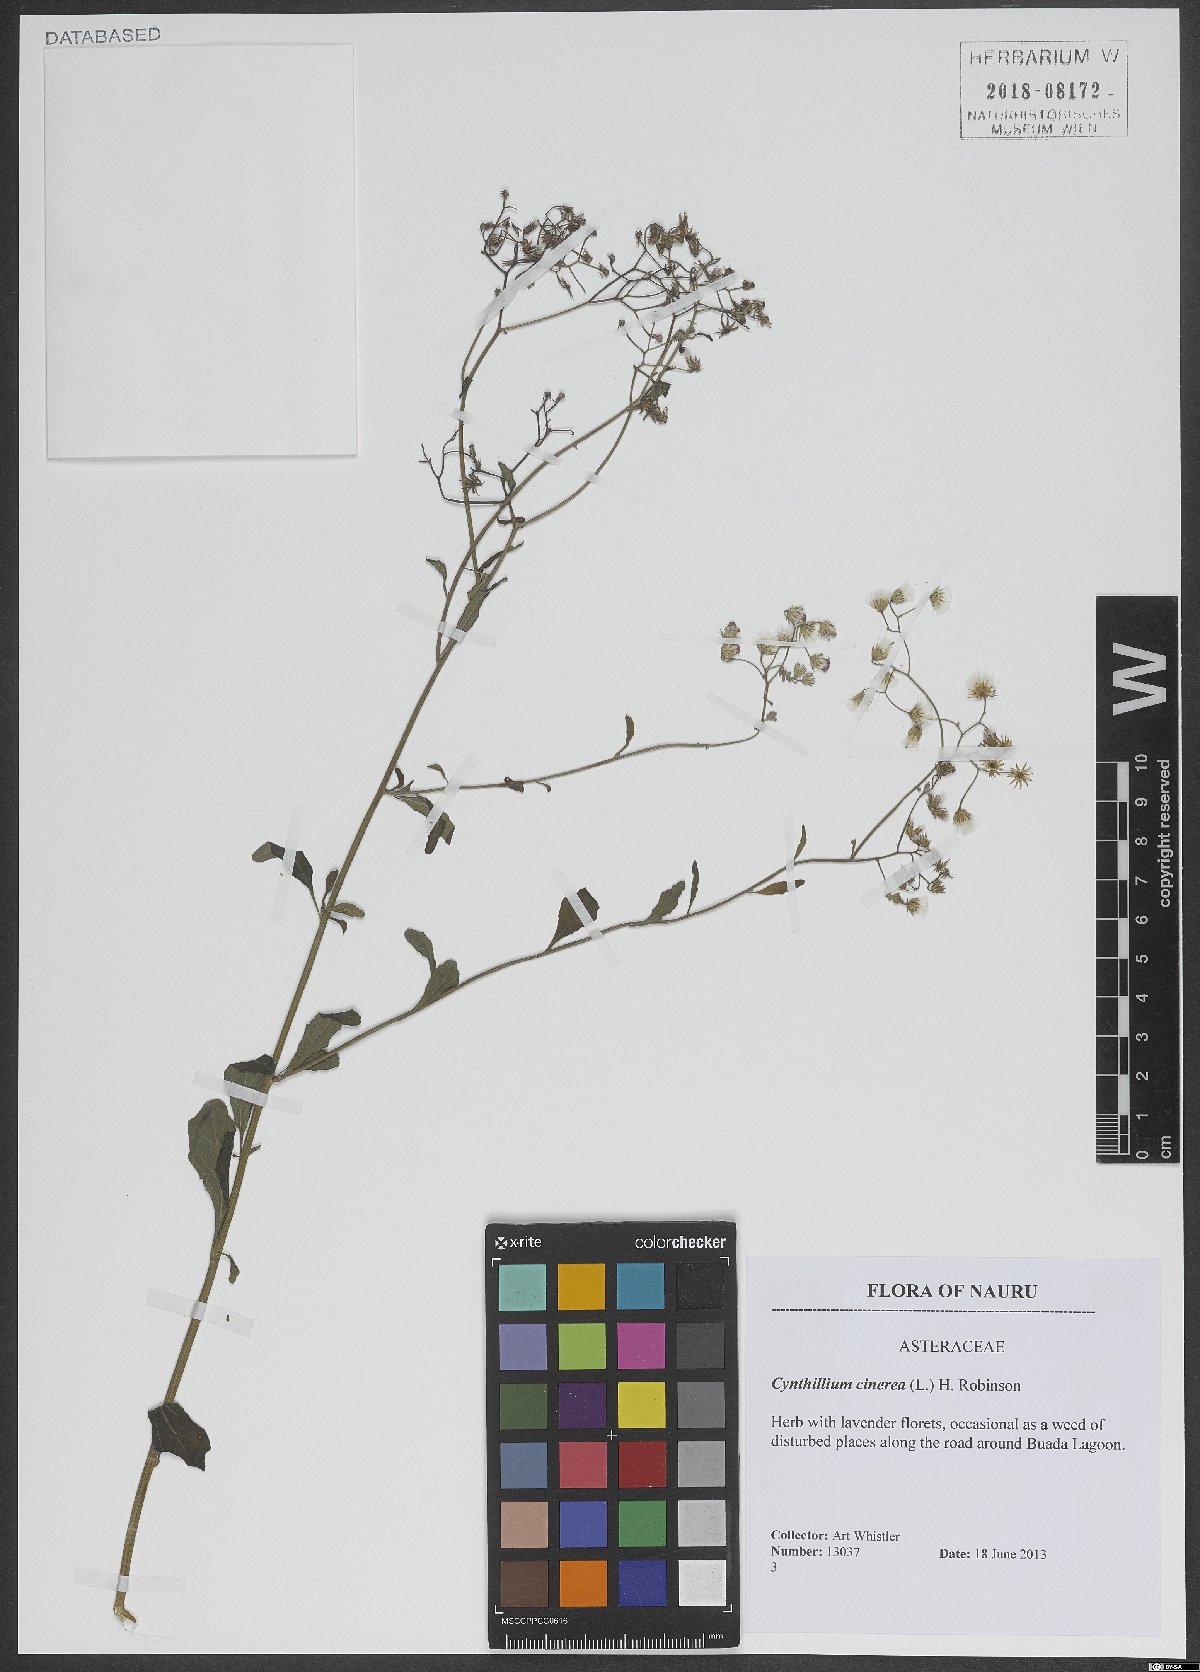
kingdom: Plantae
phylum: Tracheophyta
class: Magnoliopsida
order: Asterales
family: Asteraceae
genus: Cyanthillium
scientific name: Cyanthillium cinereum
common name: Little ironweed
